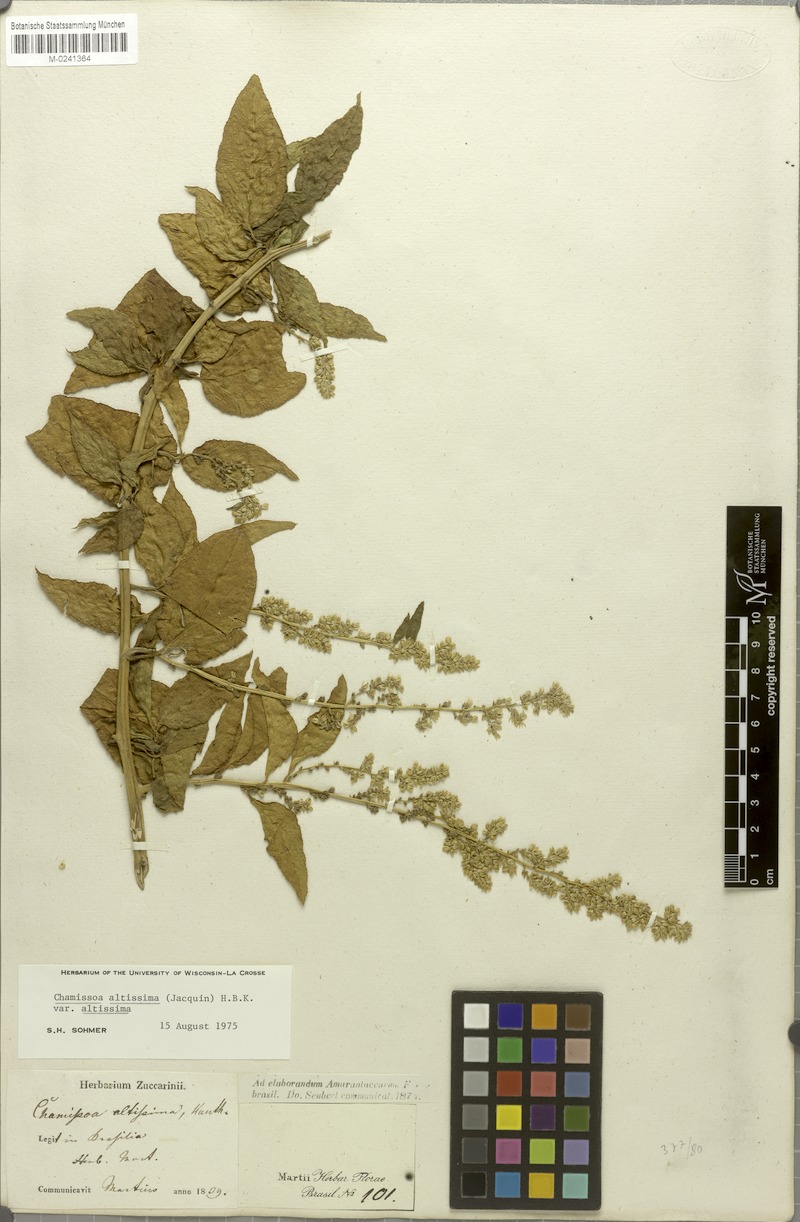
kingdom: Plantae
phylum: Tracheophyta
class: Magnoliopsida
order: Caryophyllales
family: Amaranthaceae
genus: Chamissoa
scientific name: Chamissoa altissima
